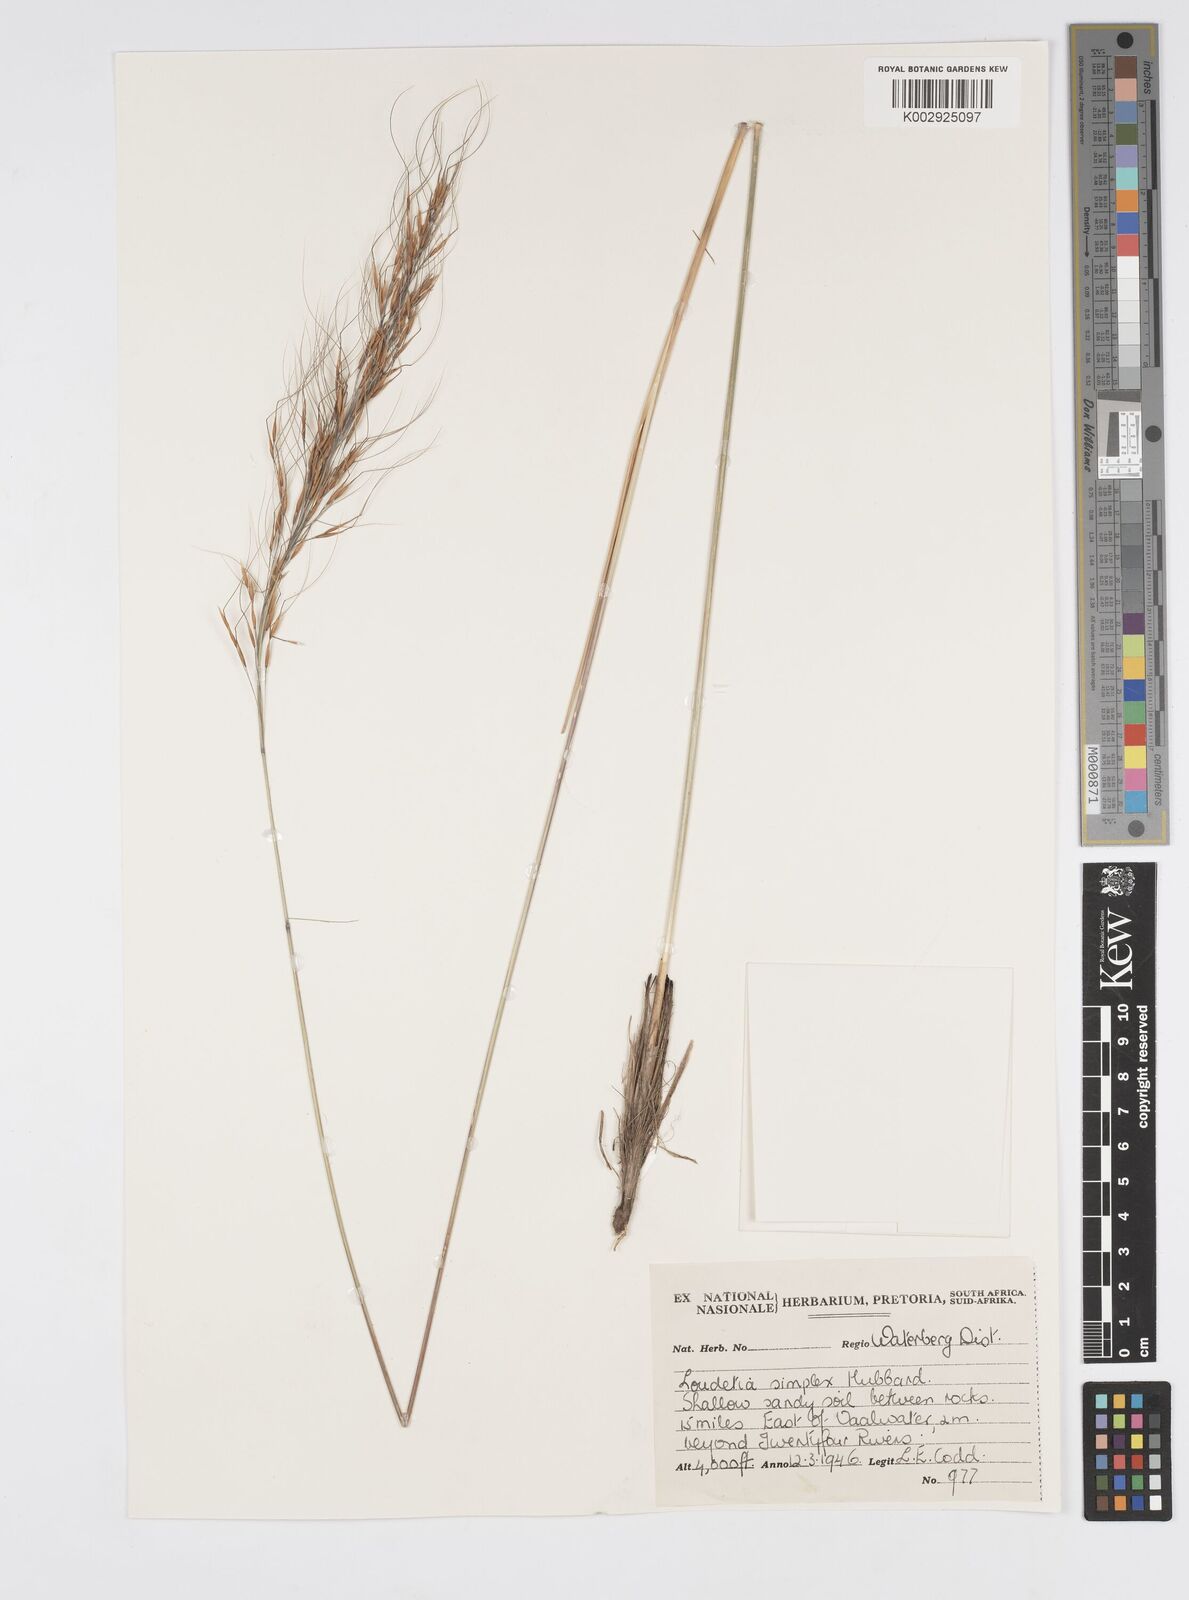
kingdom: Plantae
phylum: Tracheophyta
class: Liliopsida
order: Poales
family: Poaceae
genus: Loudetia
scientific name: Loudetia simplex
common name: Common russet grass
